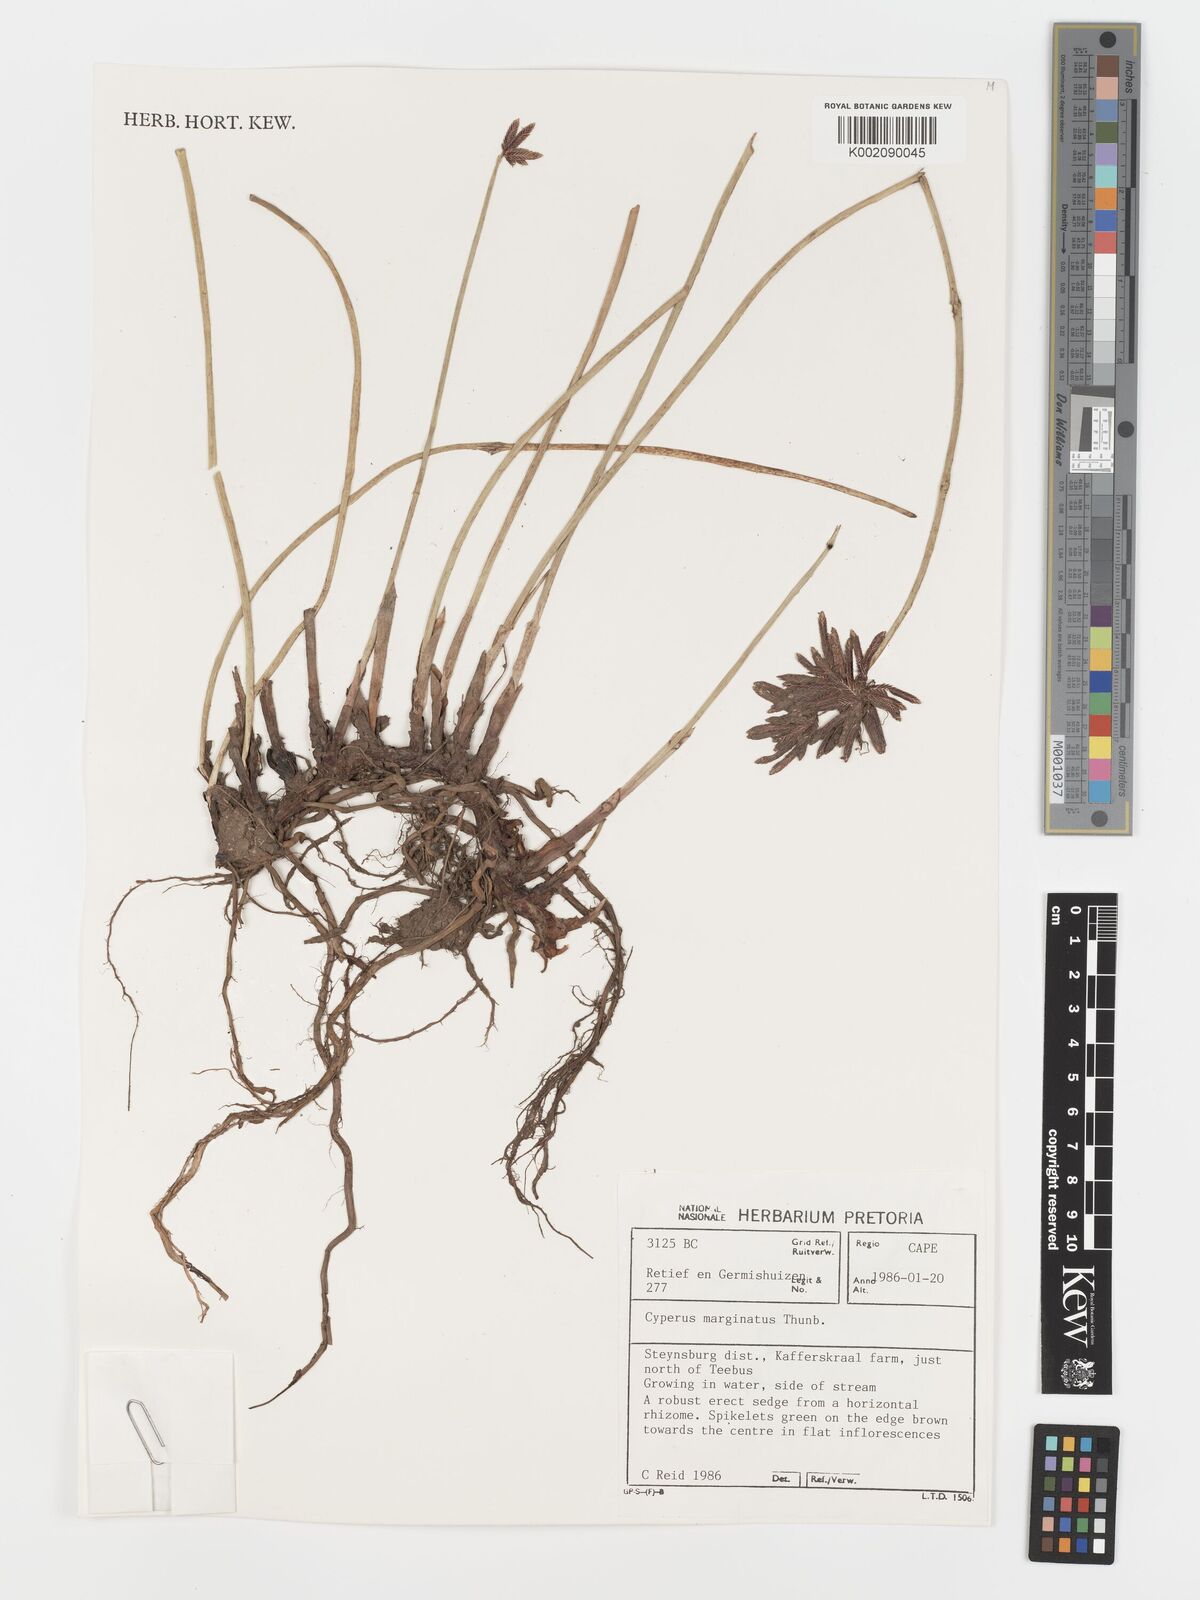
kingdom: Plantae
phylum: Tracheophyta
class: Liliopsida
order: Poales
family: Cyperaceae
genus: Cyperus
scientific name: Cyperus marginatus
